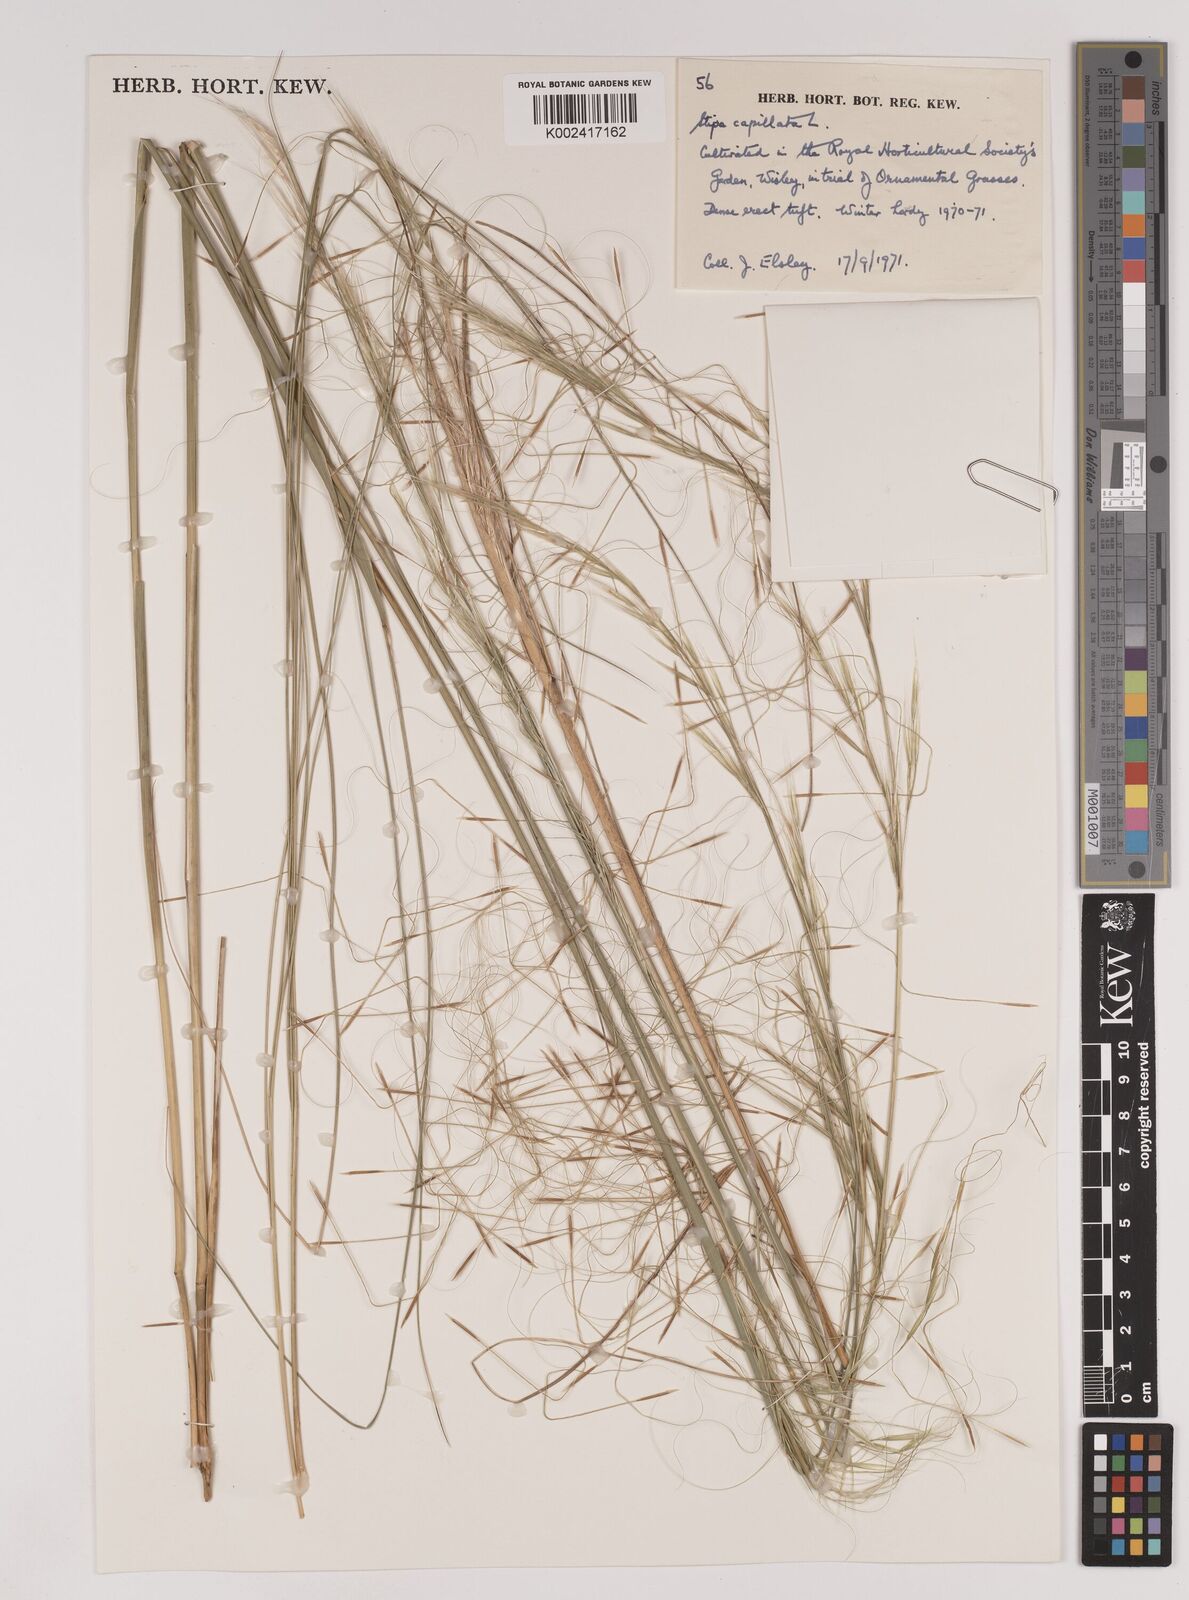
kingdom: Plantae
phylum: Tracheophyta
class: Liliopsida
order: Poales
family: Poaceae
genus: Stipa
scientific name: Stipa capillata
